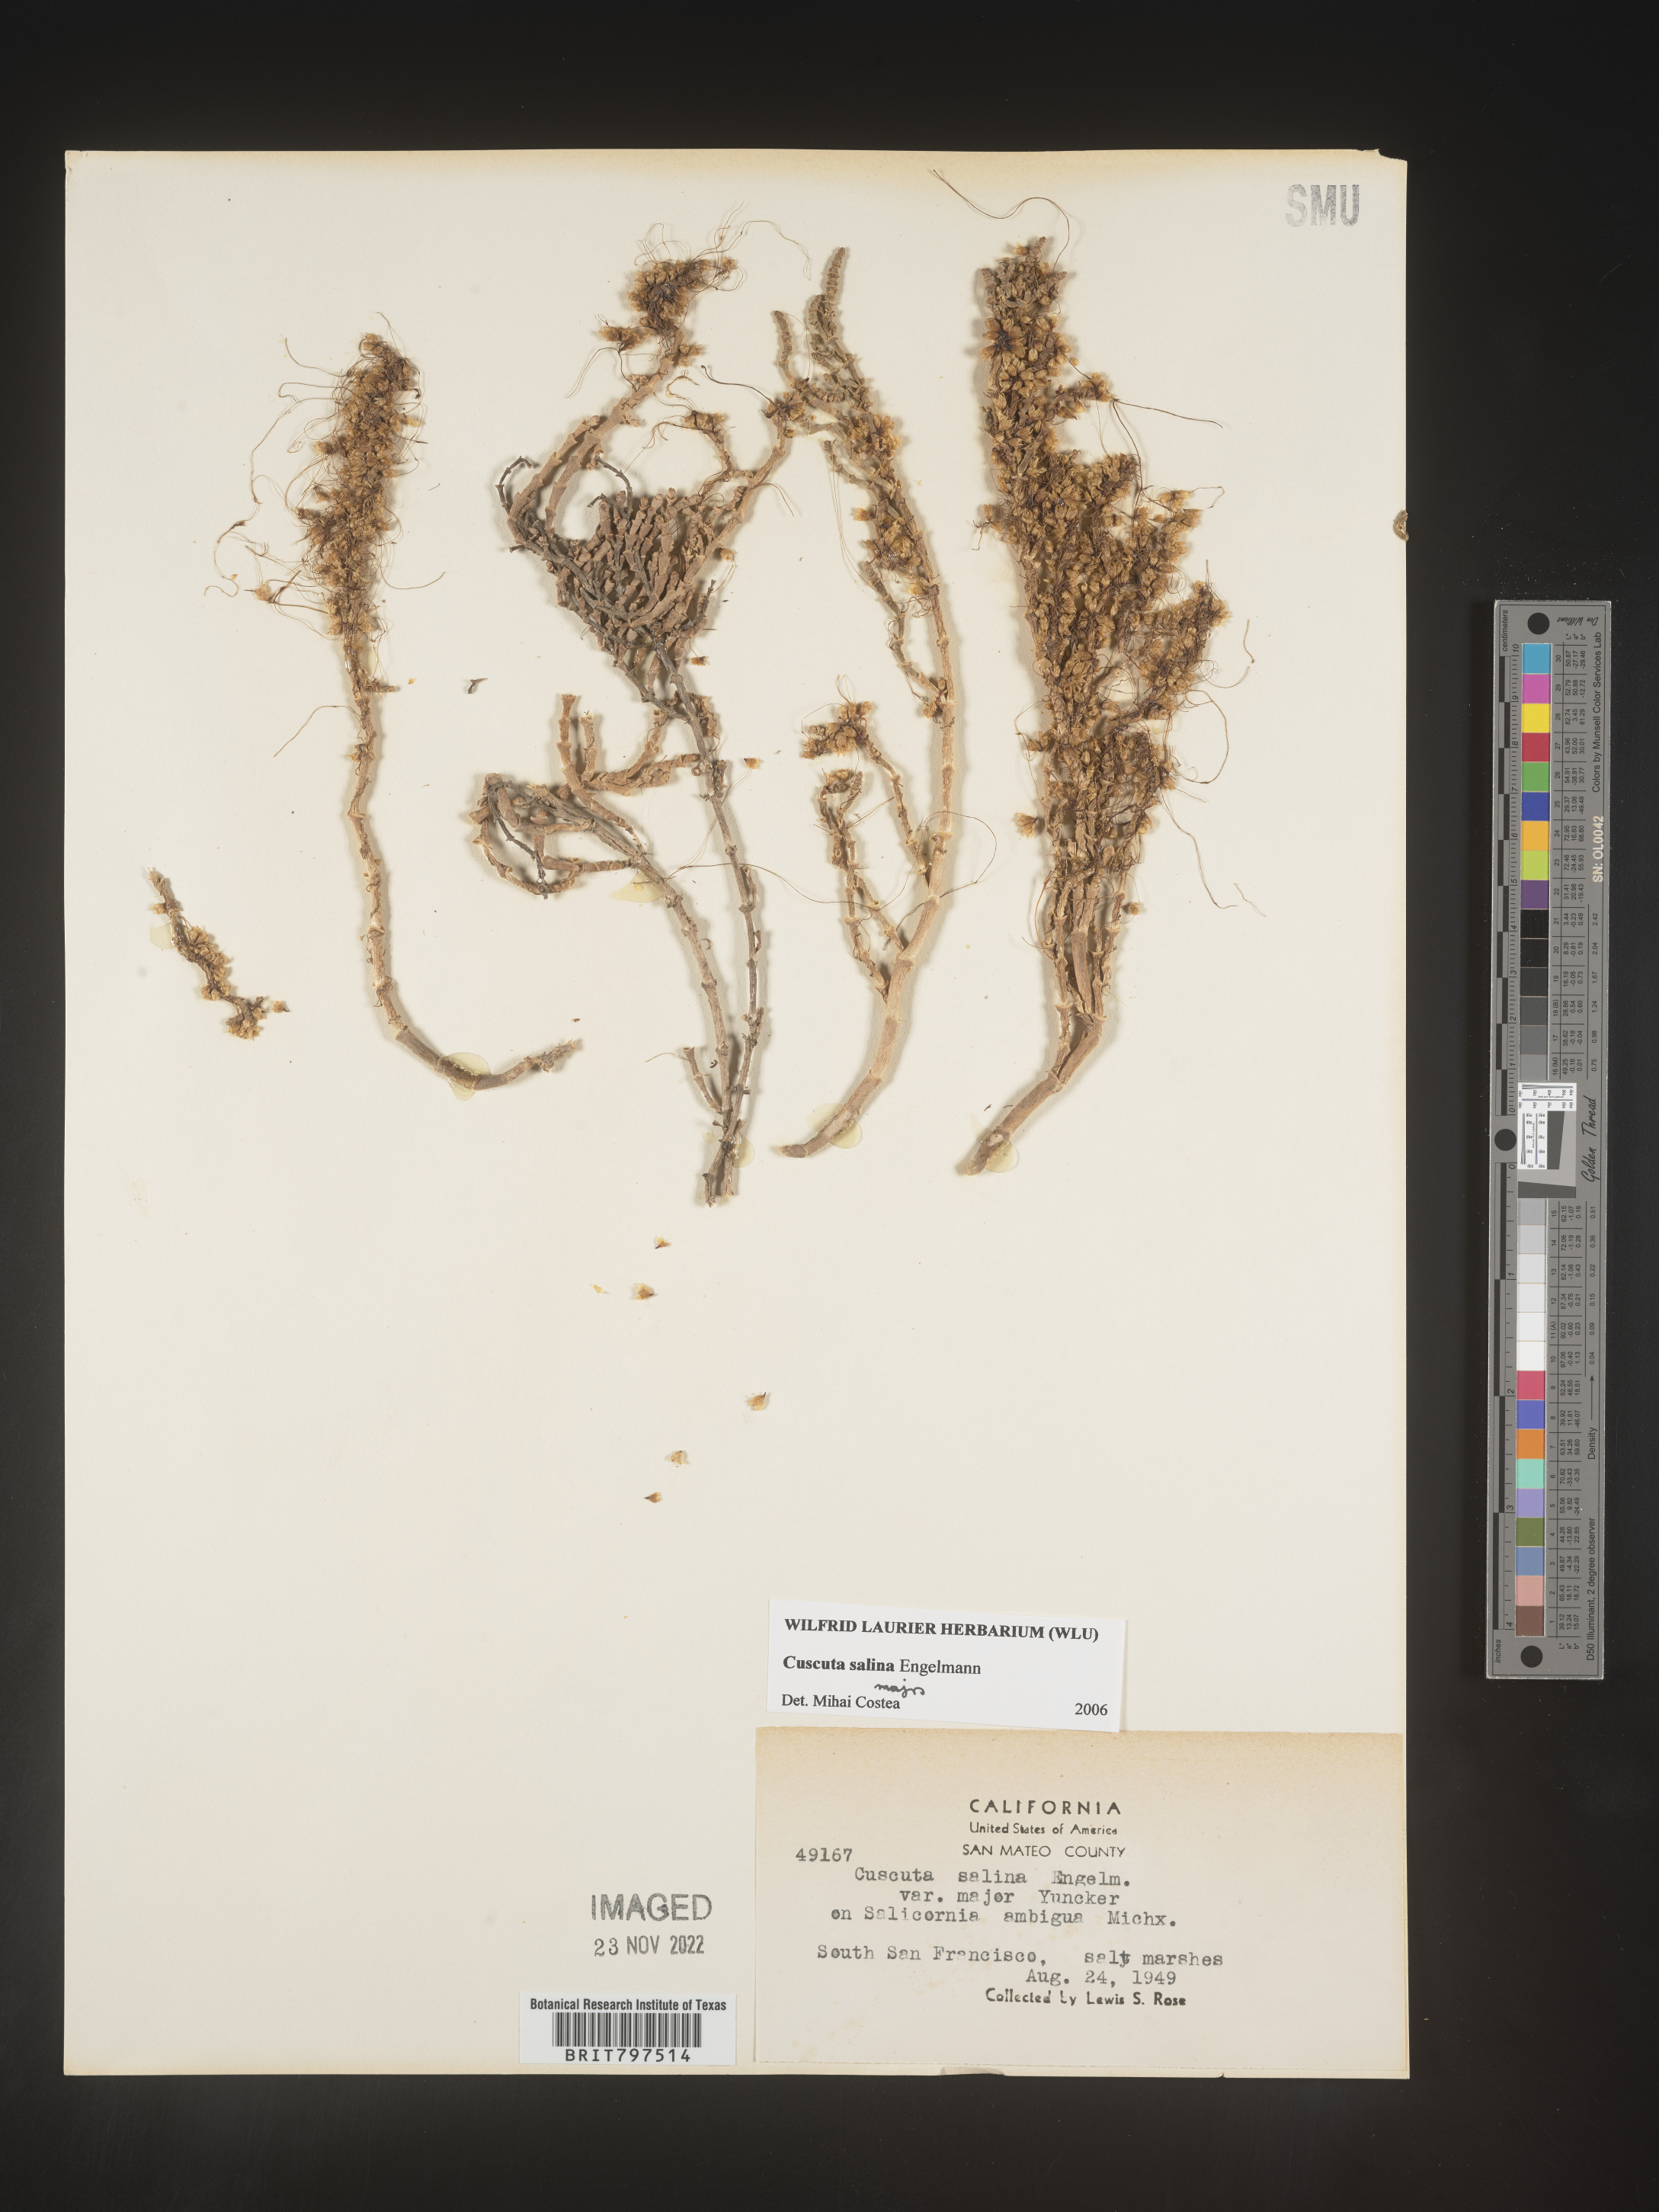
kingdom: Plantae
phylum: Tracheophyta
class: Magnoliopsida
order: Solanales
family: Convolvulaceae
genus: Cuscuta
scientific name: Cuscuta salina
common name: Goldenthread
